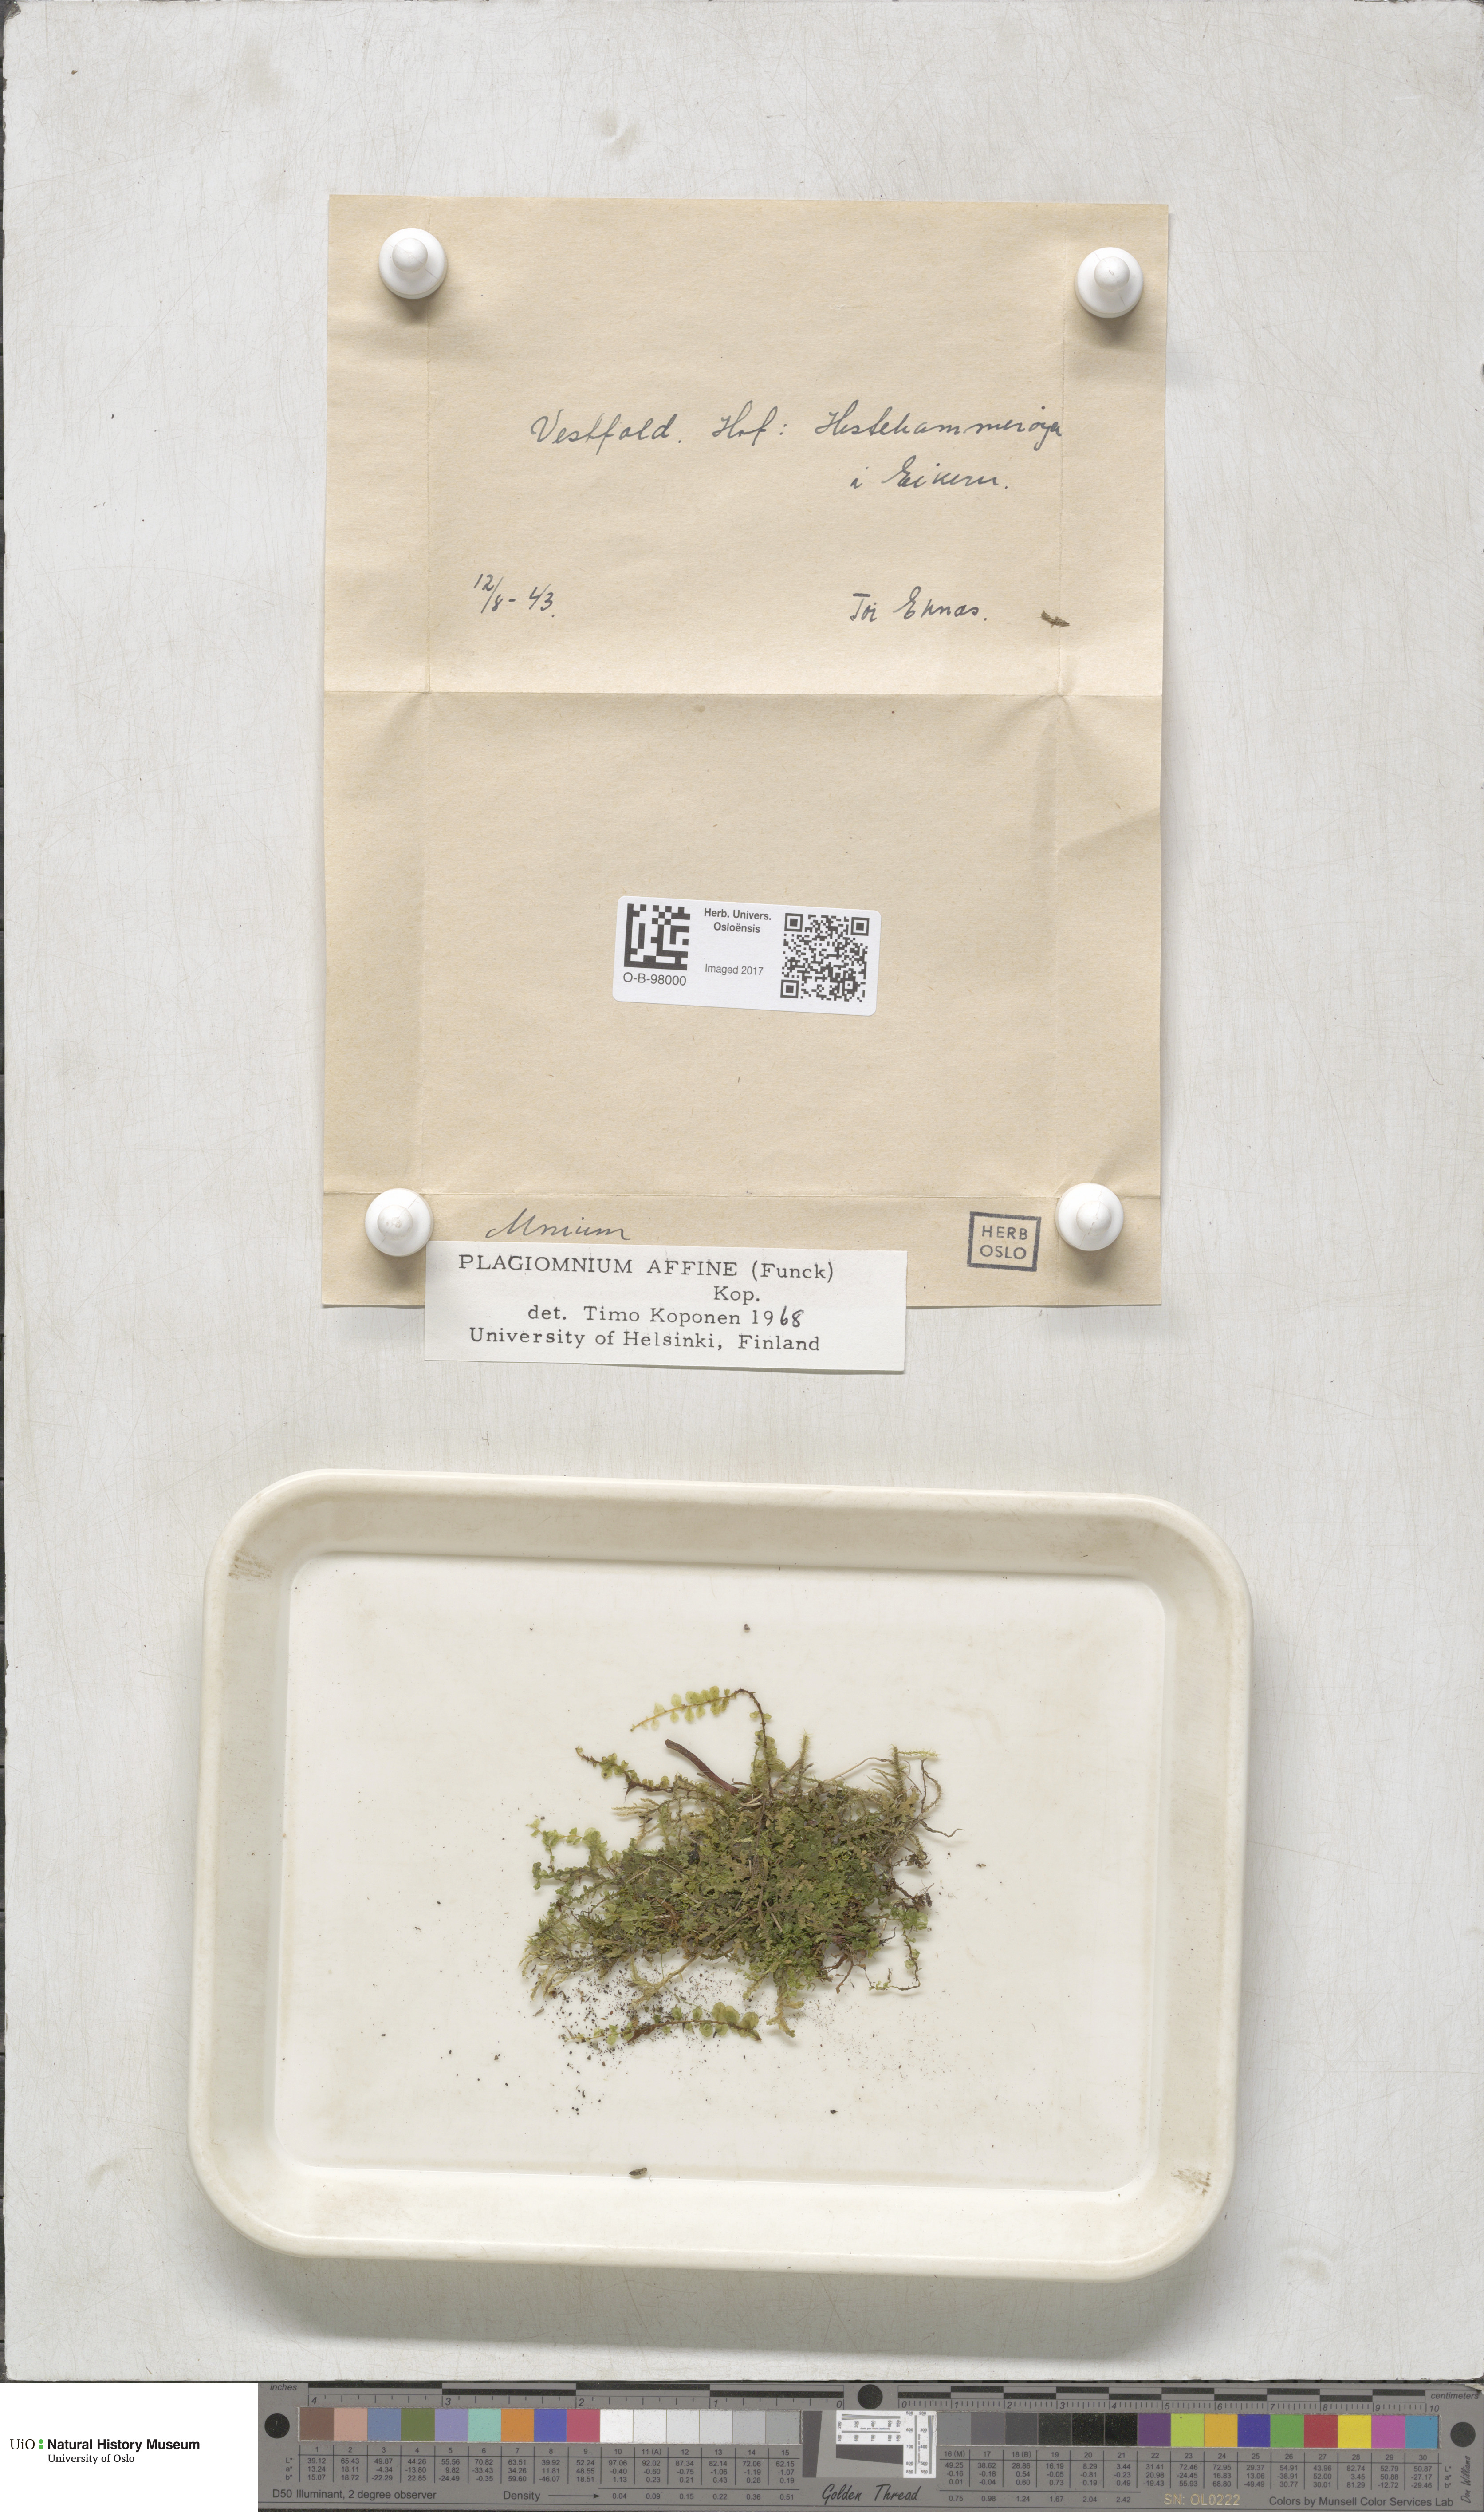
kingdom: Plantae
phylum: Bryophyta
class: Bryopsida
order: Bryales
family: Mniaceae
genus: Plagiomnium
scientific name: Plagiomnium affine
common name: Many-fruited thyme-moss
